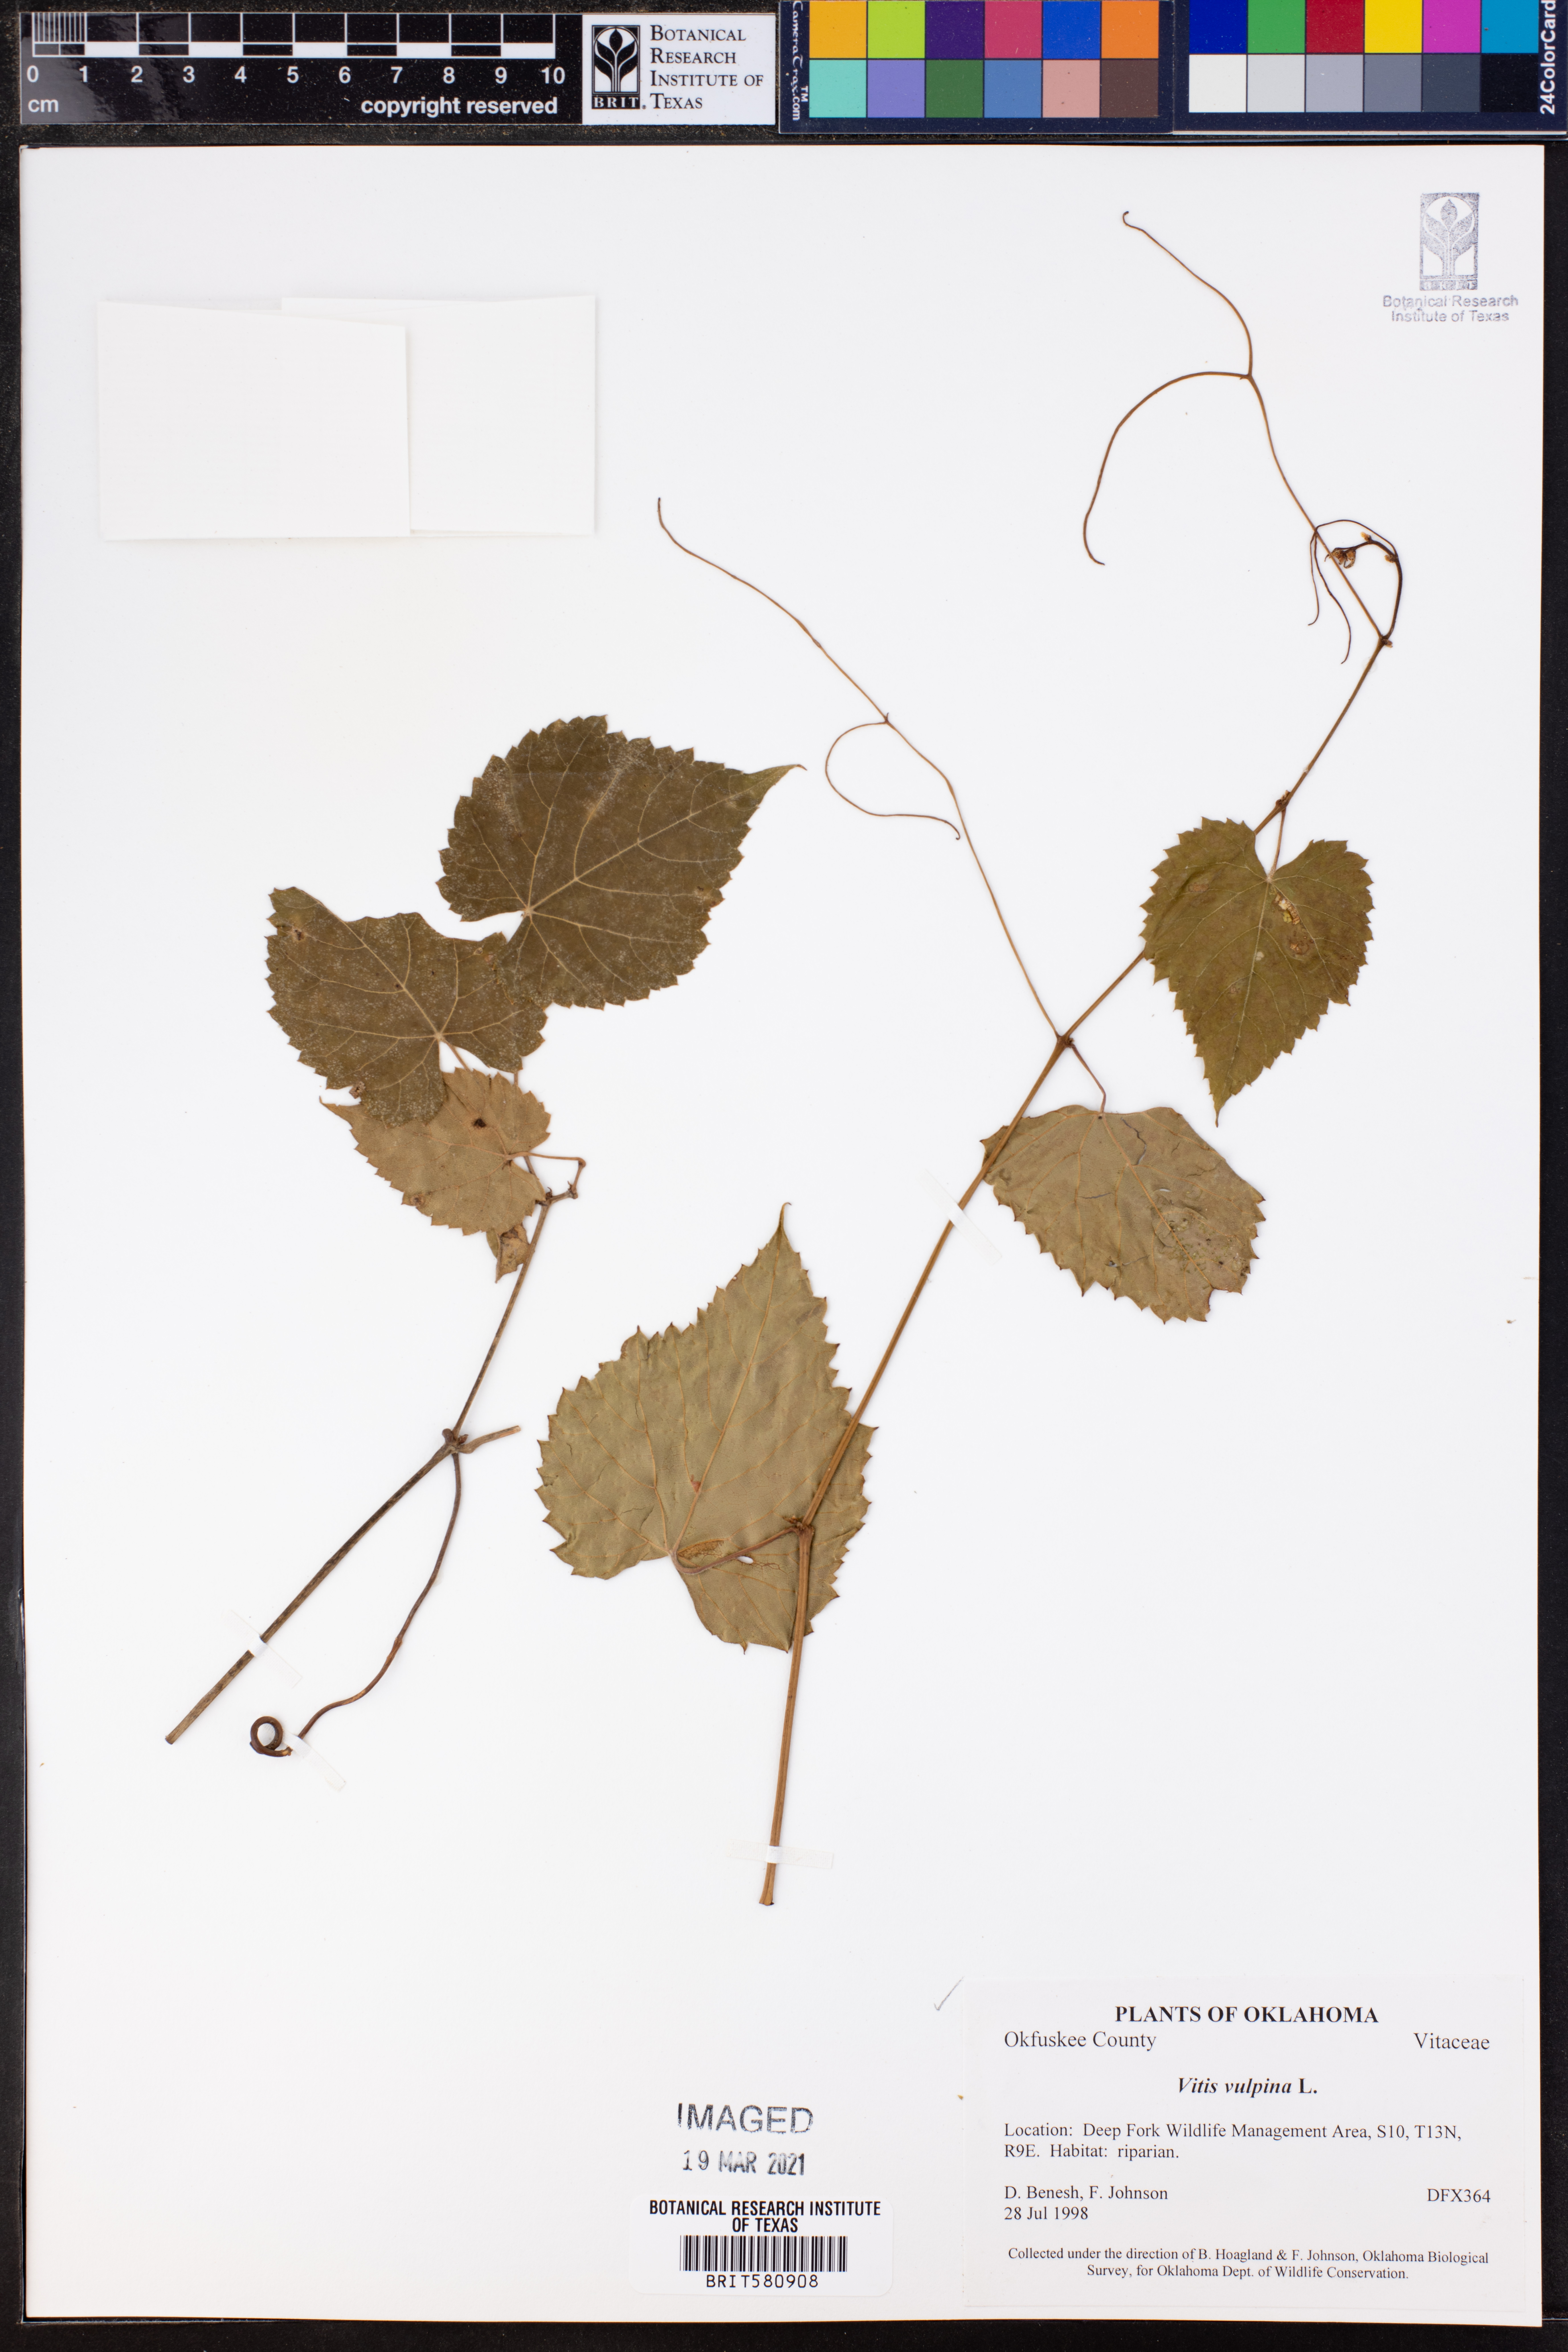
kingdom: Plantae
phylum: Tracheophyta
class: Magnoliopsida
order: Vitales
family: Vitaceae
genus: Vitis
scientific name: Vitis vulpina
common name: Frost grape
